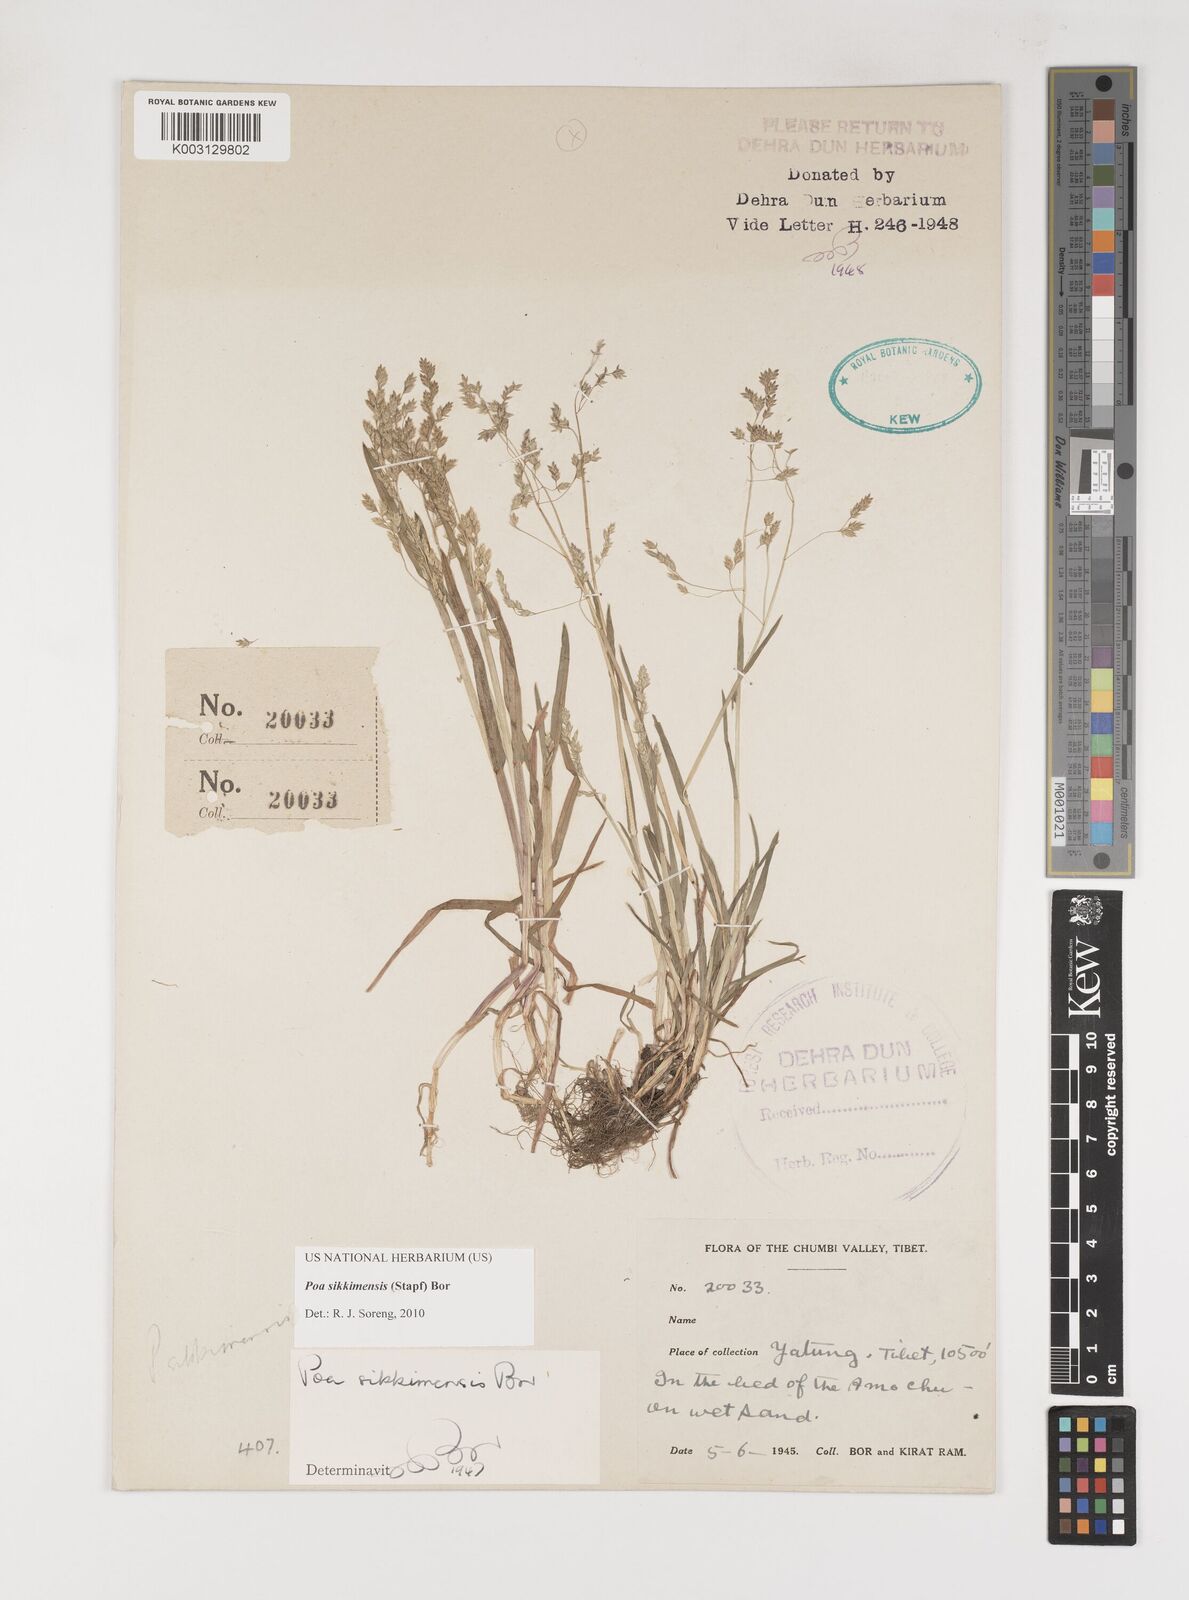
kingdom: Plantae
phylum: Tracheophyta
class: Liliopsida
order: Poales
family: Poaceae
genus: Poa
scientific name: Poa sikkimensis
